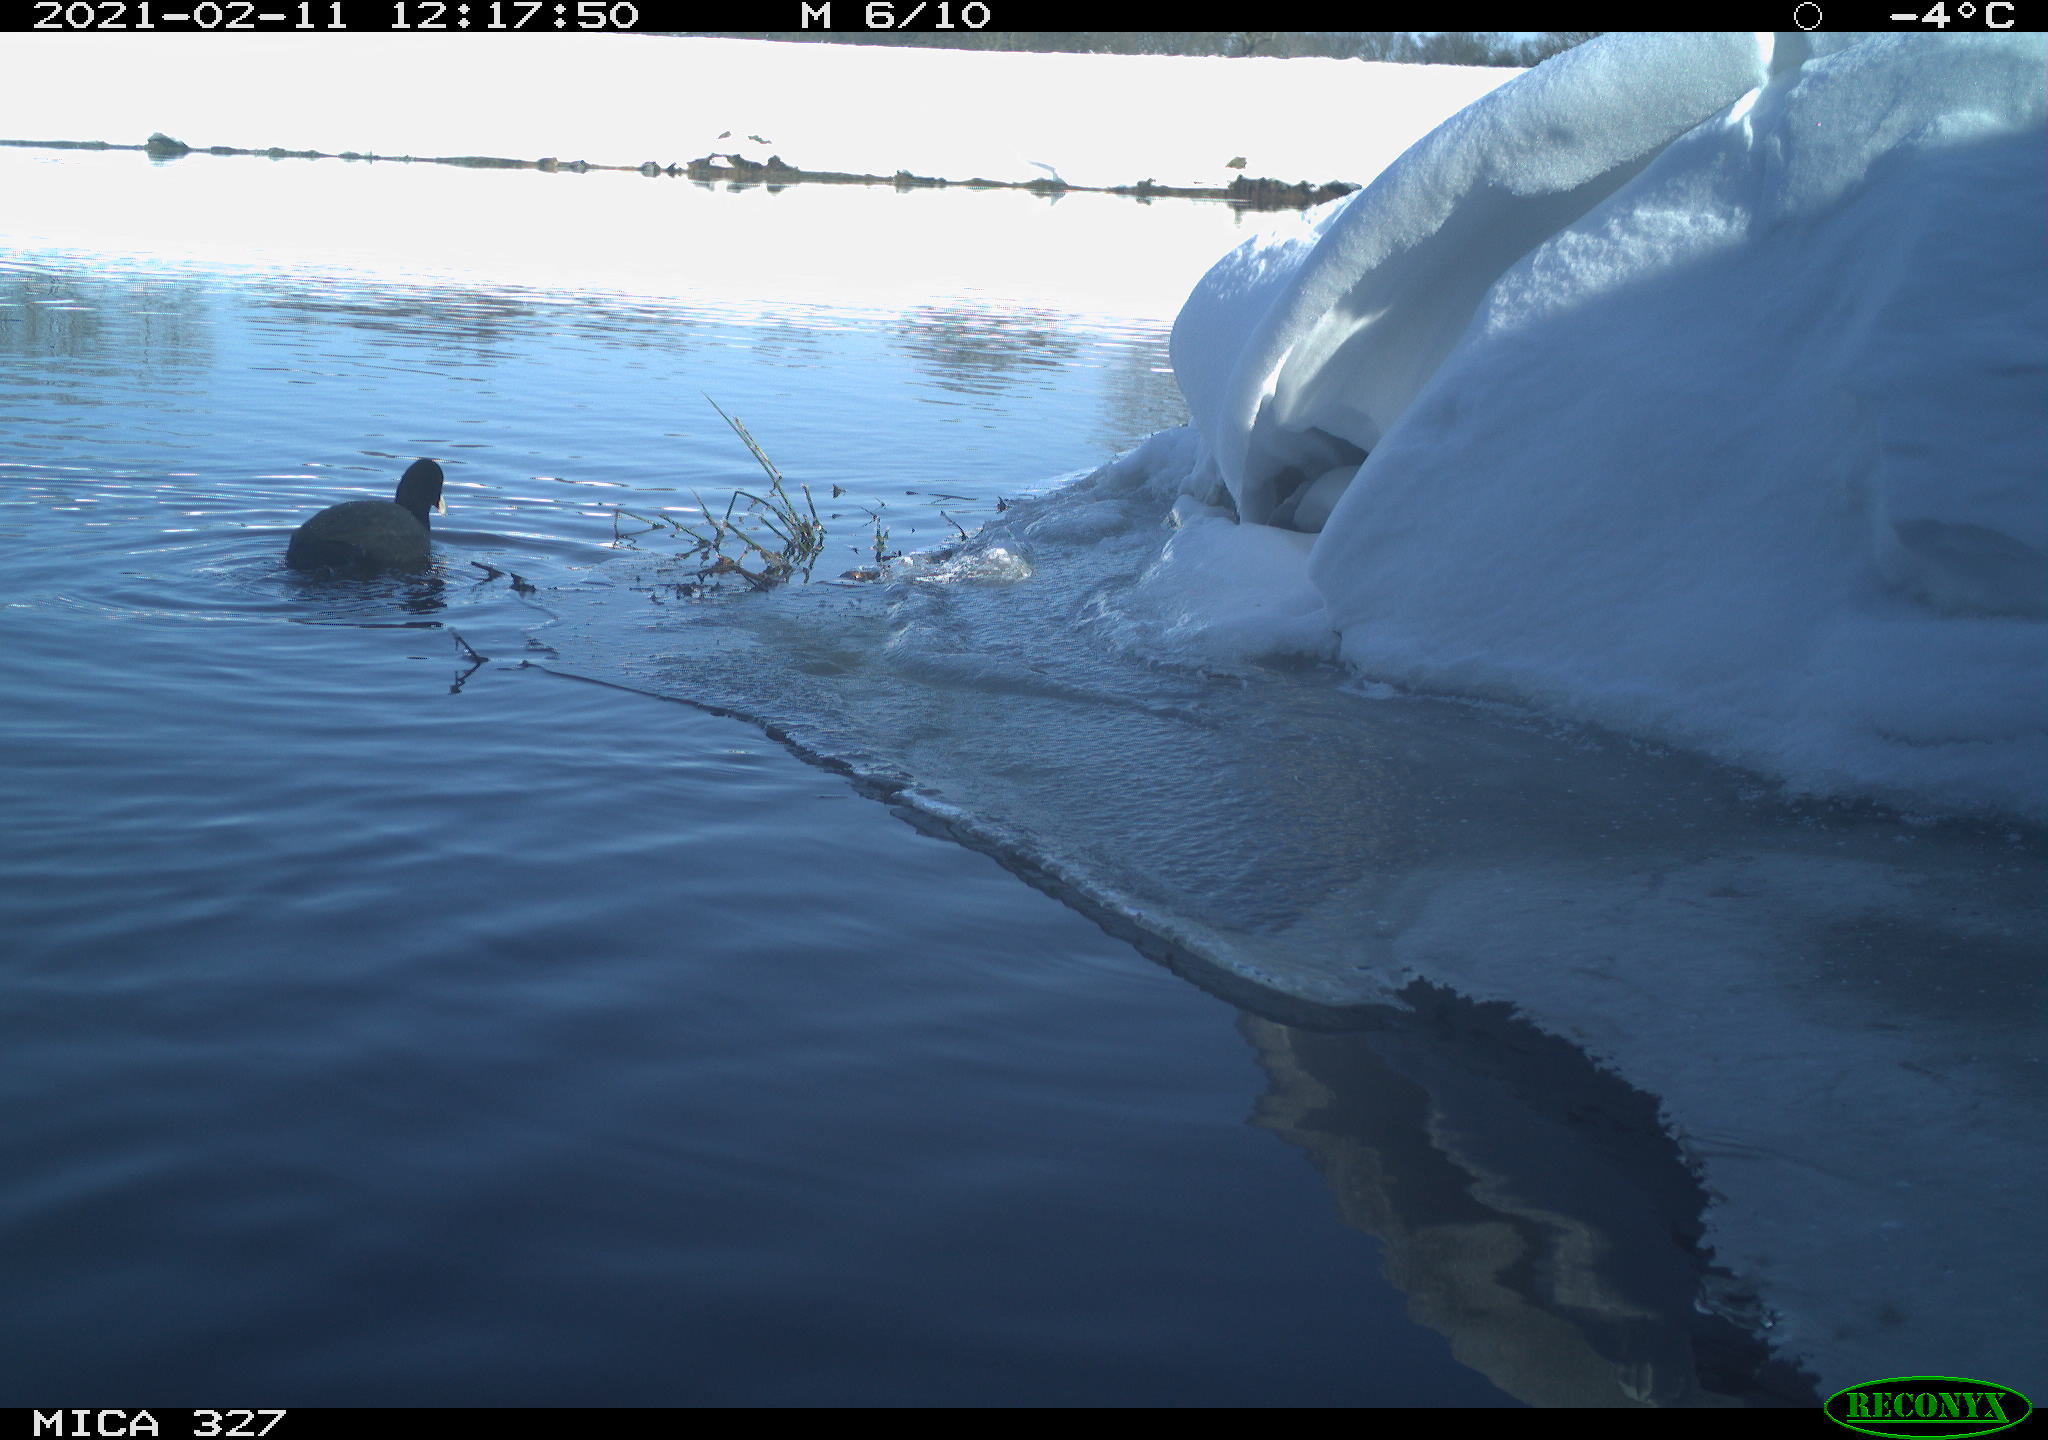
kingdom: Animalia
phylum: Chordata
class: Aves
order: Gruiformes
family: Rallidae
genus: Fulica
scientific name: Fulica atra
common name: Eurasian coot
